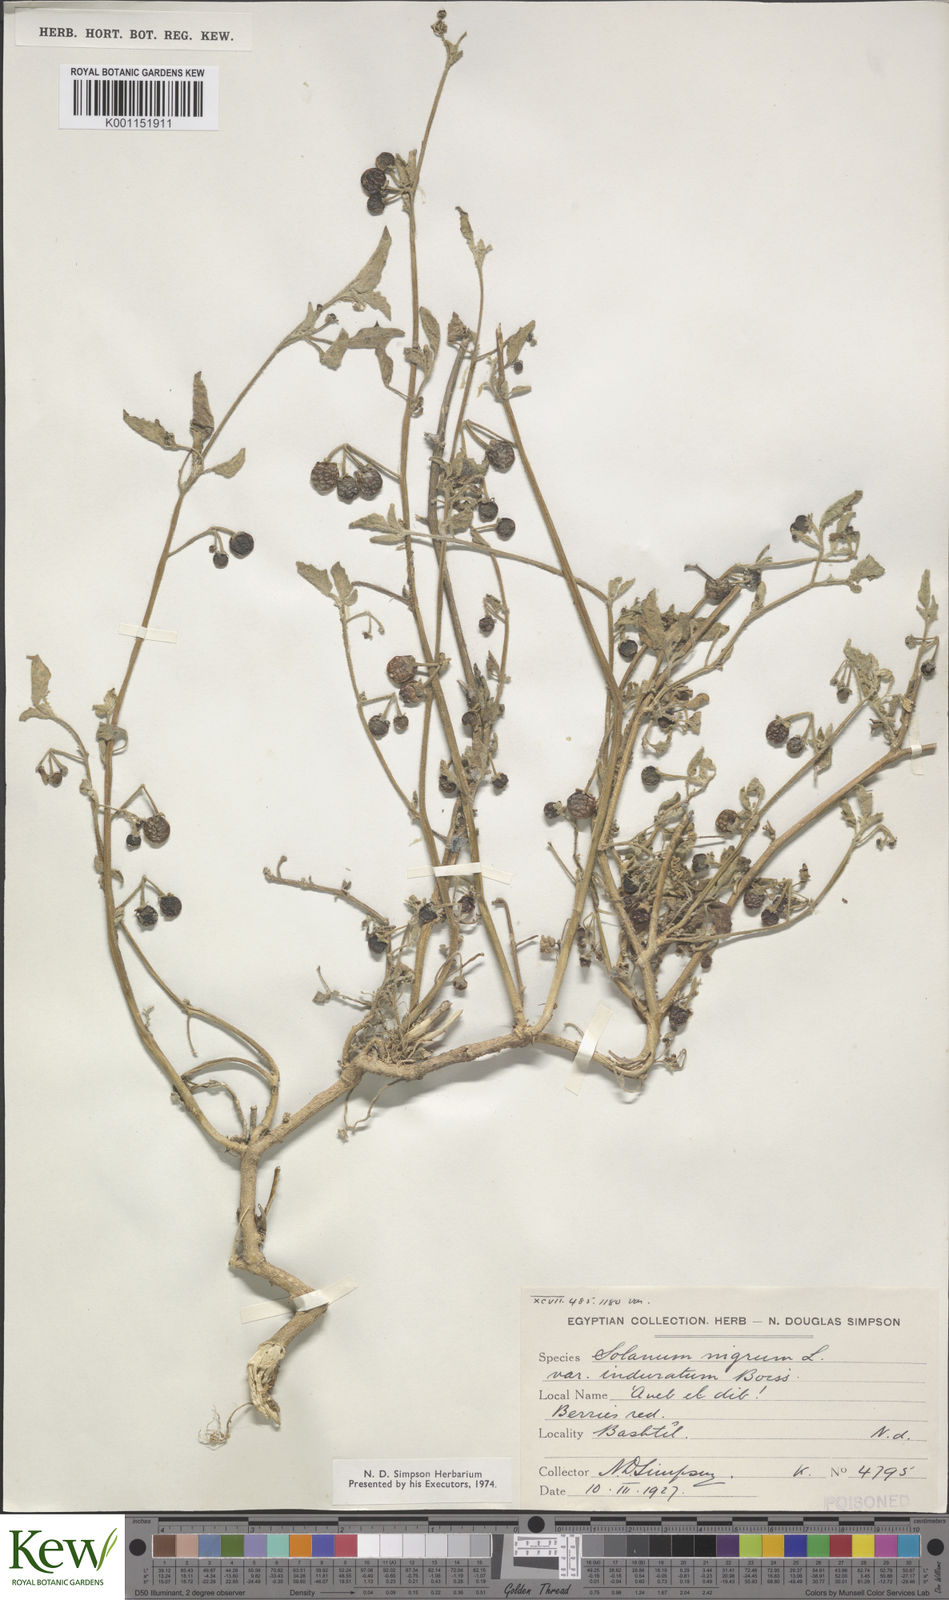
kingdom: Plantae
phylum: Tracheophyta
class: Magnoliopsida
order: Solanales
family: Solanaceae
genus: Solanum
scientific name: Solanum villosum
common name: Red nightshade
